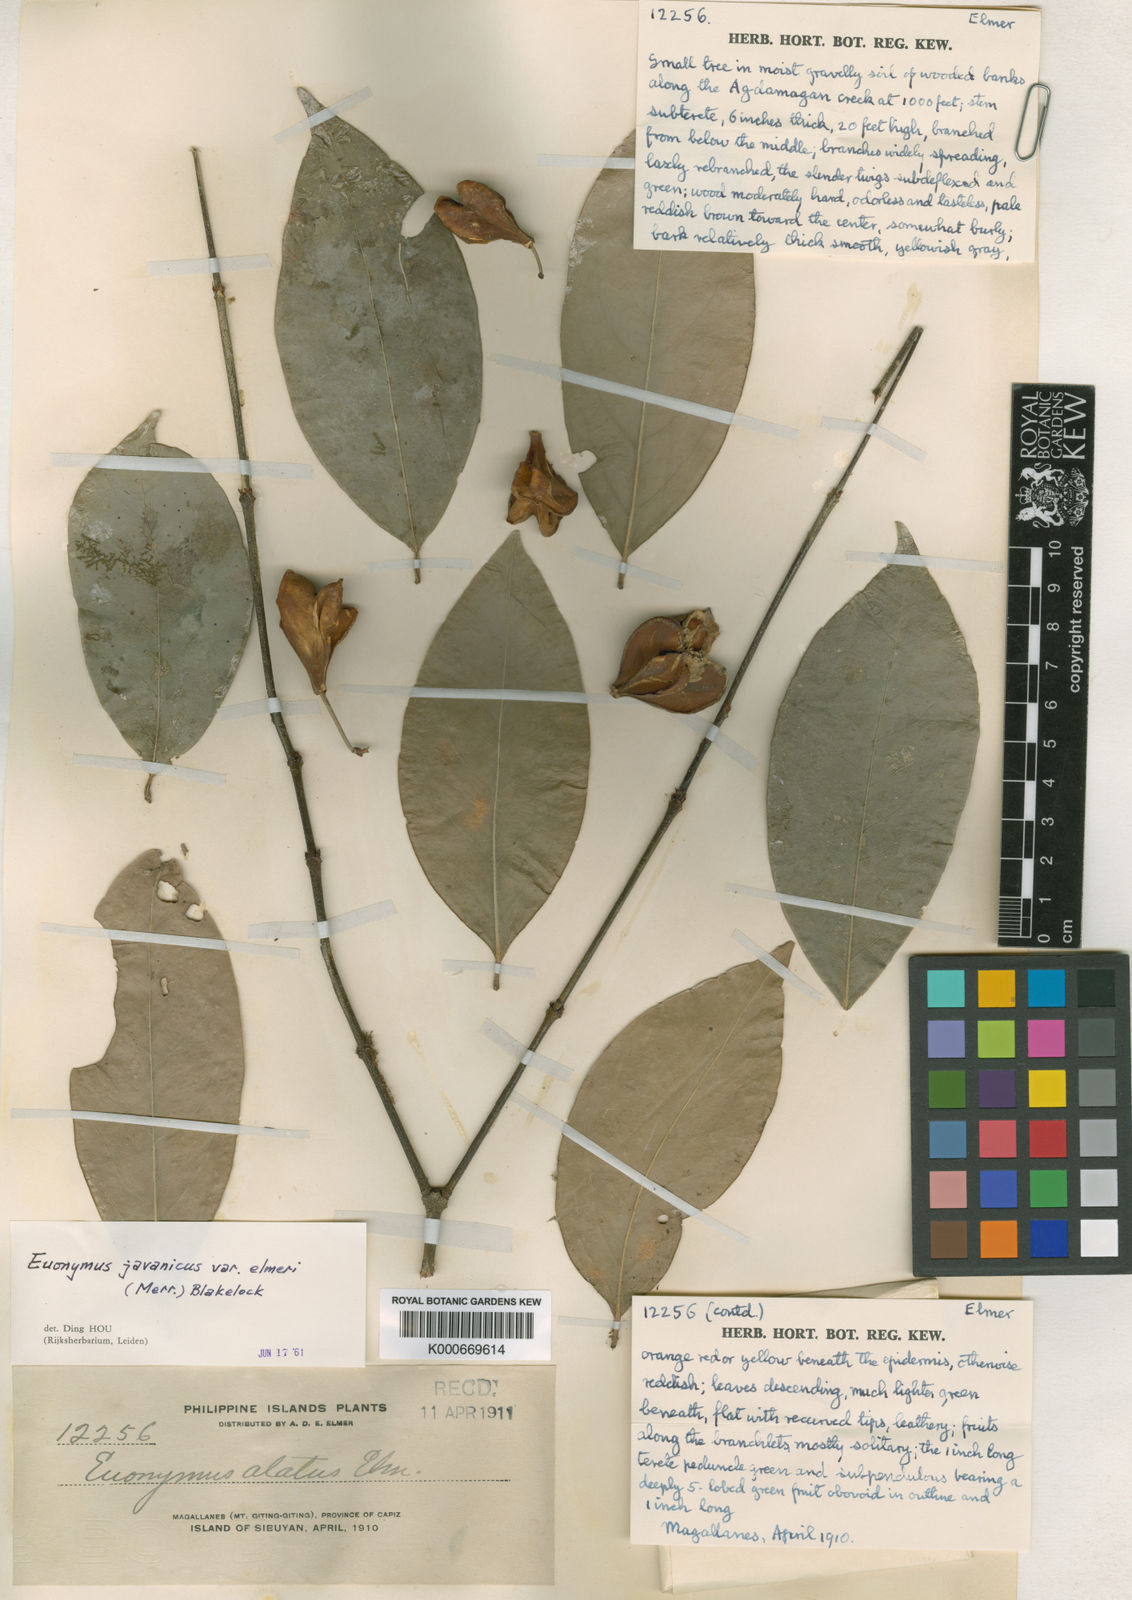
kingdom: Plantae
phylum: Tracheophyta
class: Magnoliopsida
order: Celastrales
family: Celastraceae
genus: Euonymus
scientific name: Euonymus indicus
